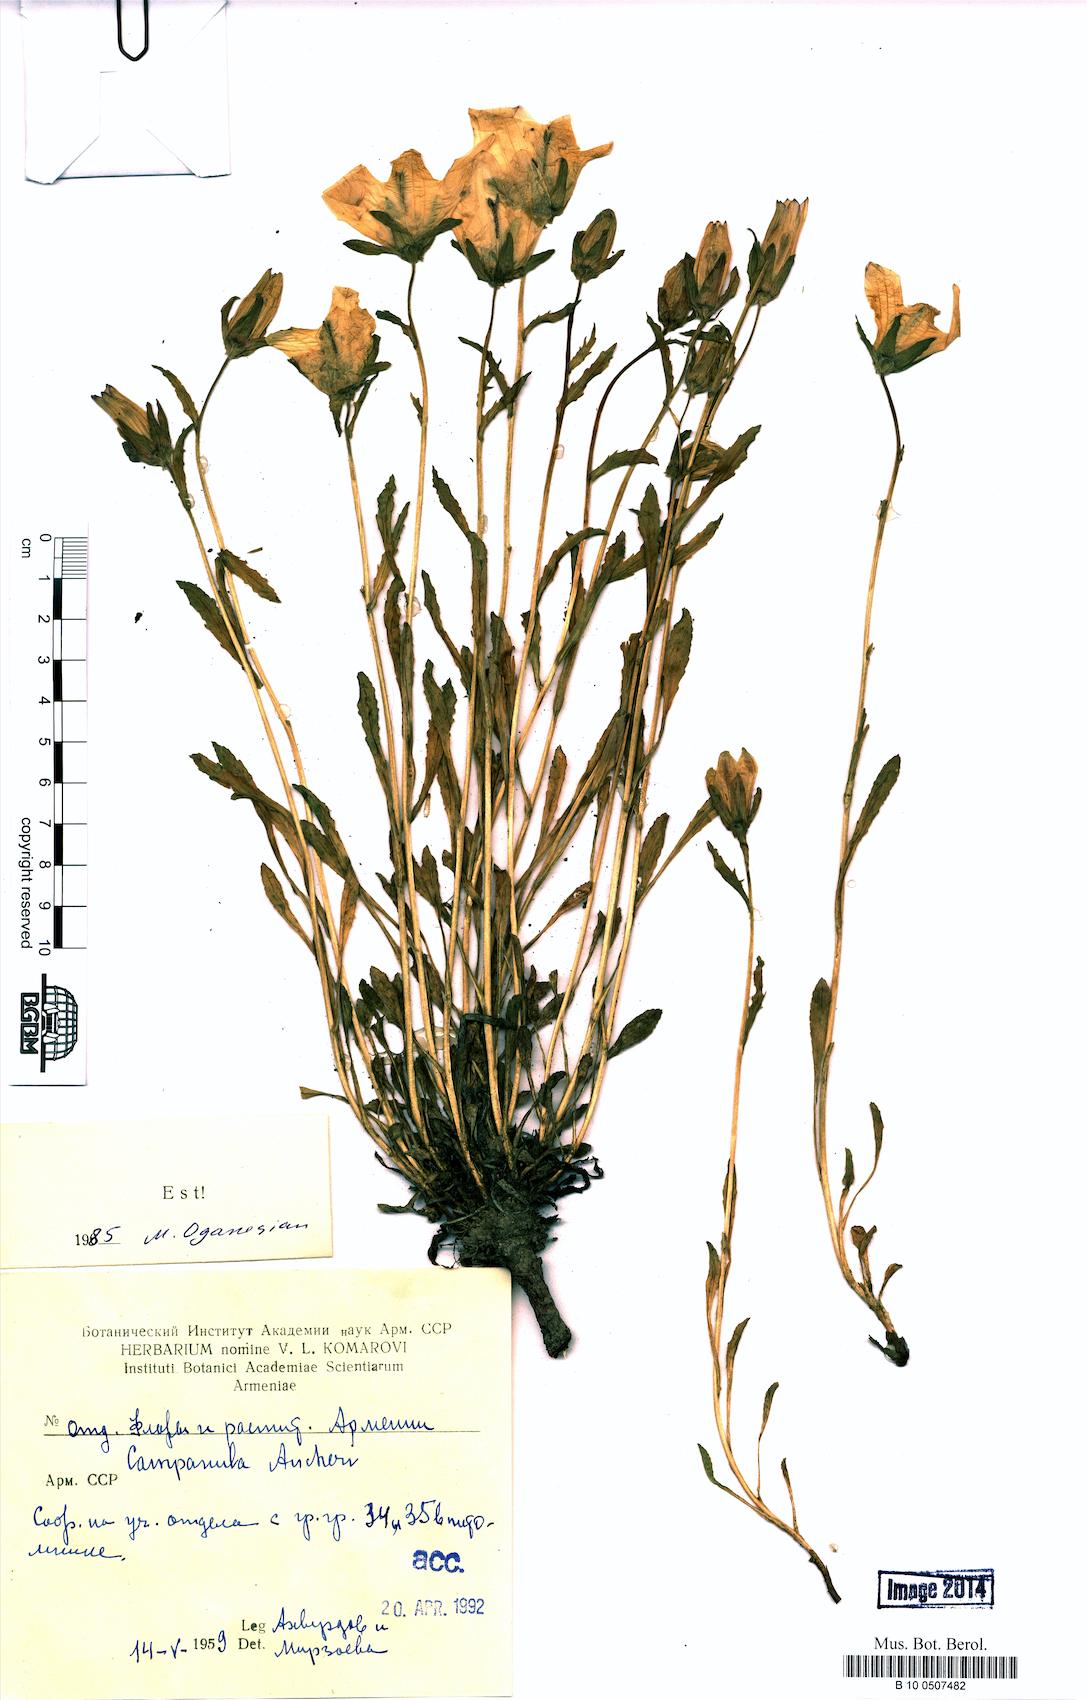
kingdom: Plantae
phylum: Tracheophyta
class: Magnoliopsida
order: Asterales
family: Campanulaceae
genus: Campanula
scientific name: Campanula saxifraga
